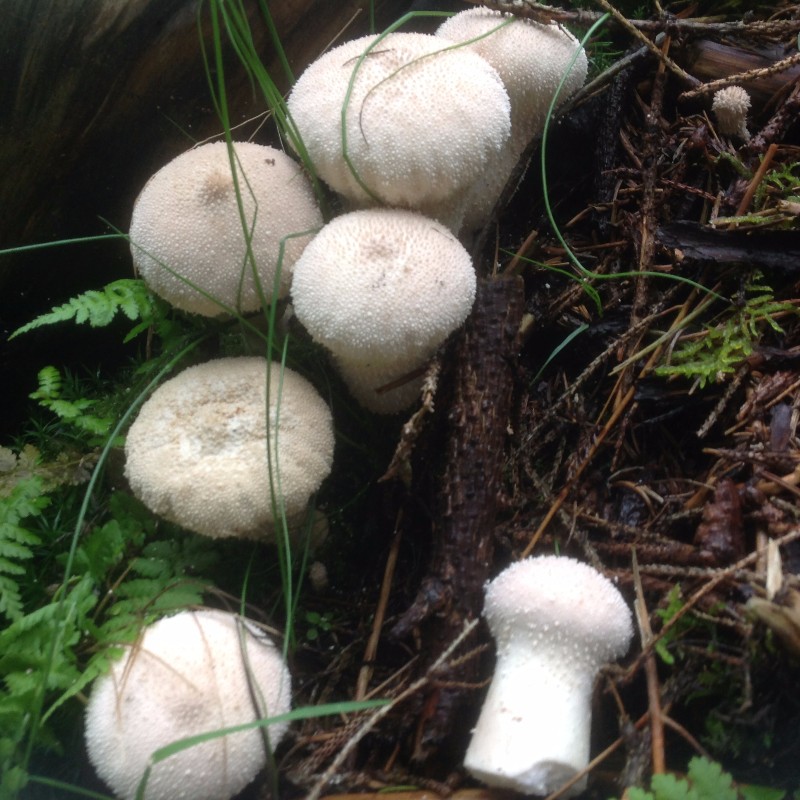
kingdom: Fungi
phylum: Basidiomycota
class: Agaricomycetes
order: Agaricales
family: Agaricaceae
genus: Lycoperdon
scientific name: Lycoperdon
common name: støvbold
